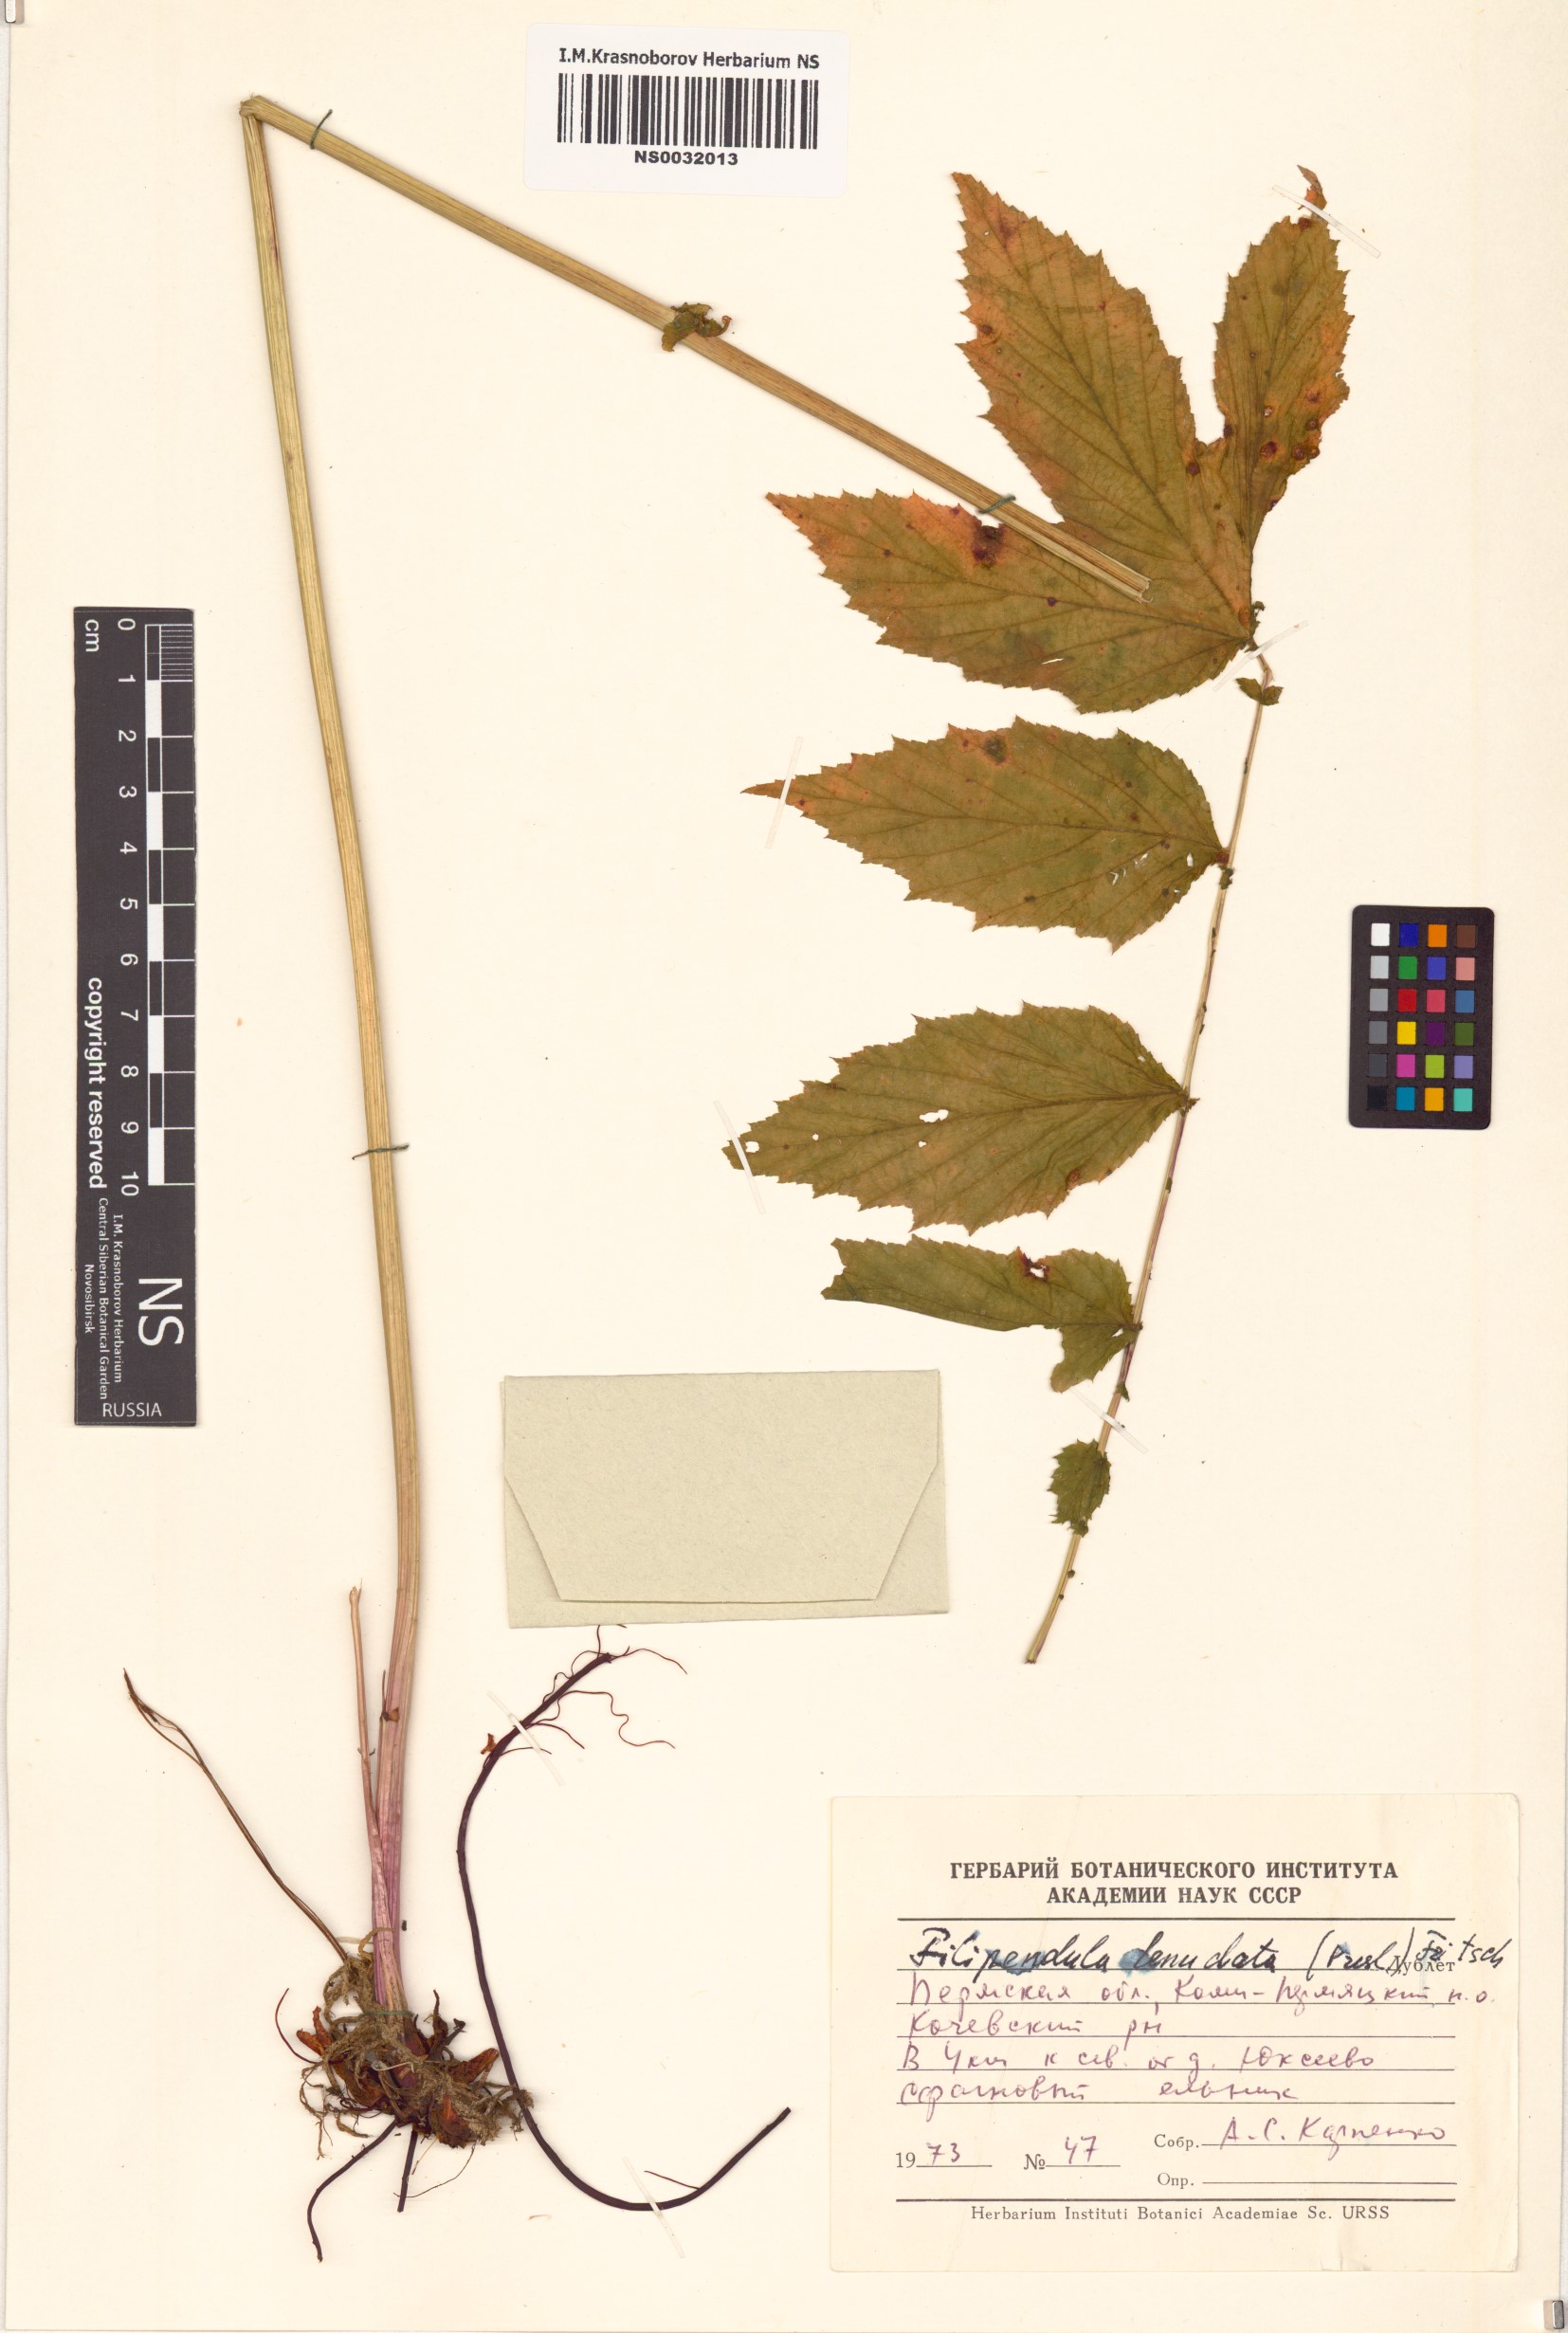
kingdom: Plantae
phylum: Tracheophyta
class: Magnoliopsida
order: Rosales
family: Rosaceae
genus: Filipendula
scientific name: Filipendula ulmaria
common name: Meadowsweet
